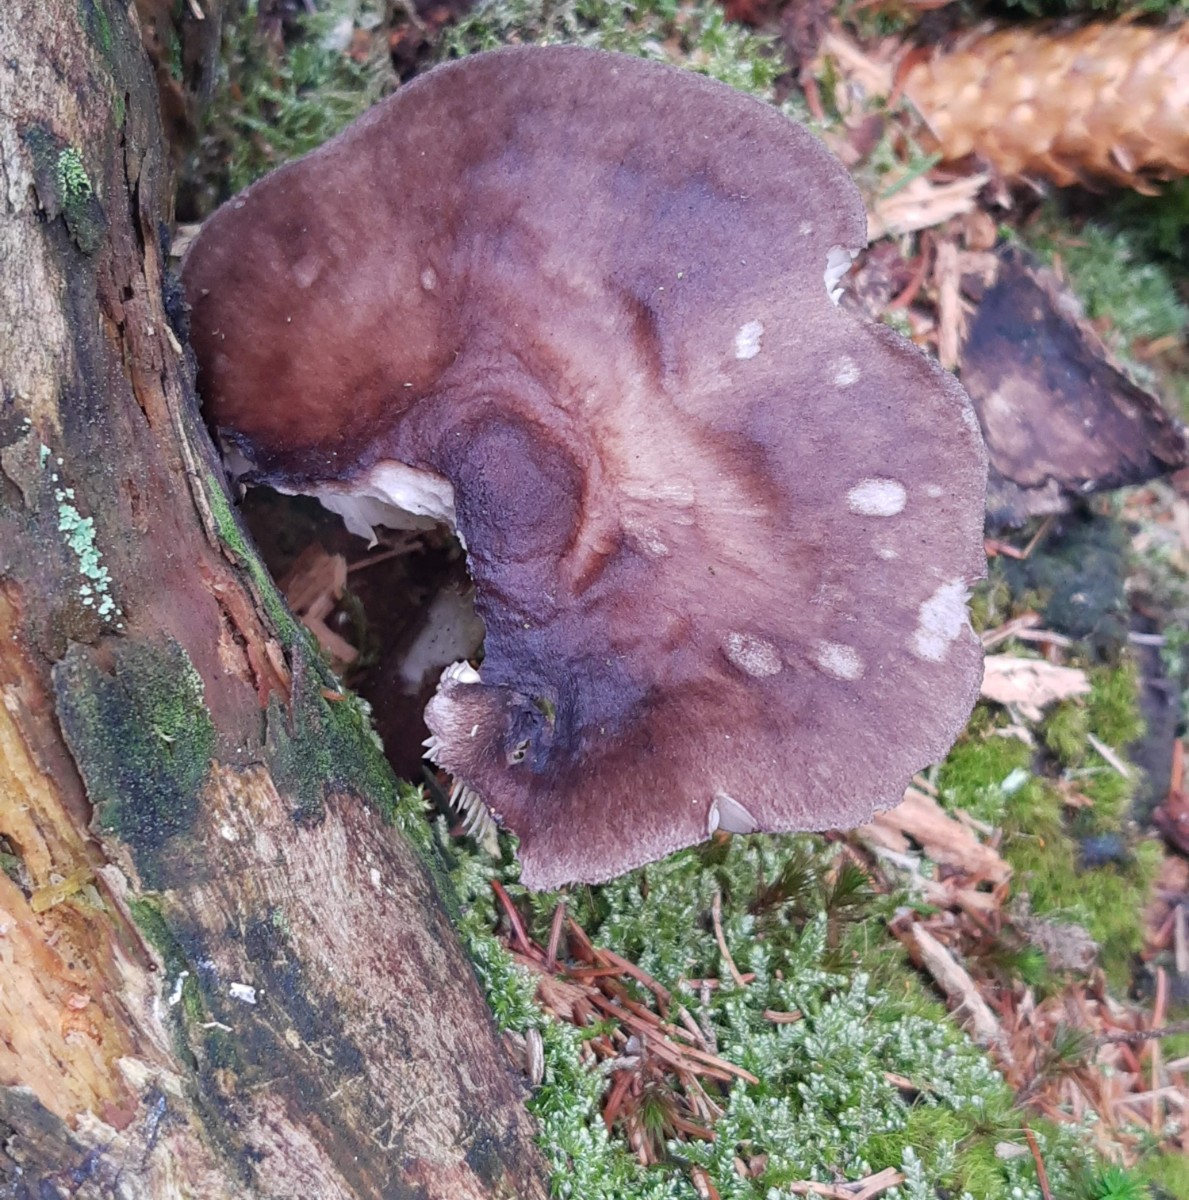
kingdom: Fungi
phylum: Basidiomycota
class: Agaricomycetes
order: Agaricales
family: Pluteaceae
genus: Pluteus
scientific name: Pluteus atromarginatus
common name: sortrandet skærmhat
